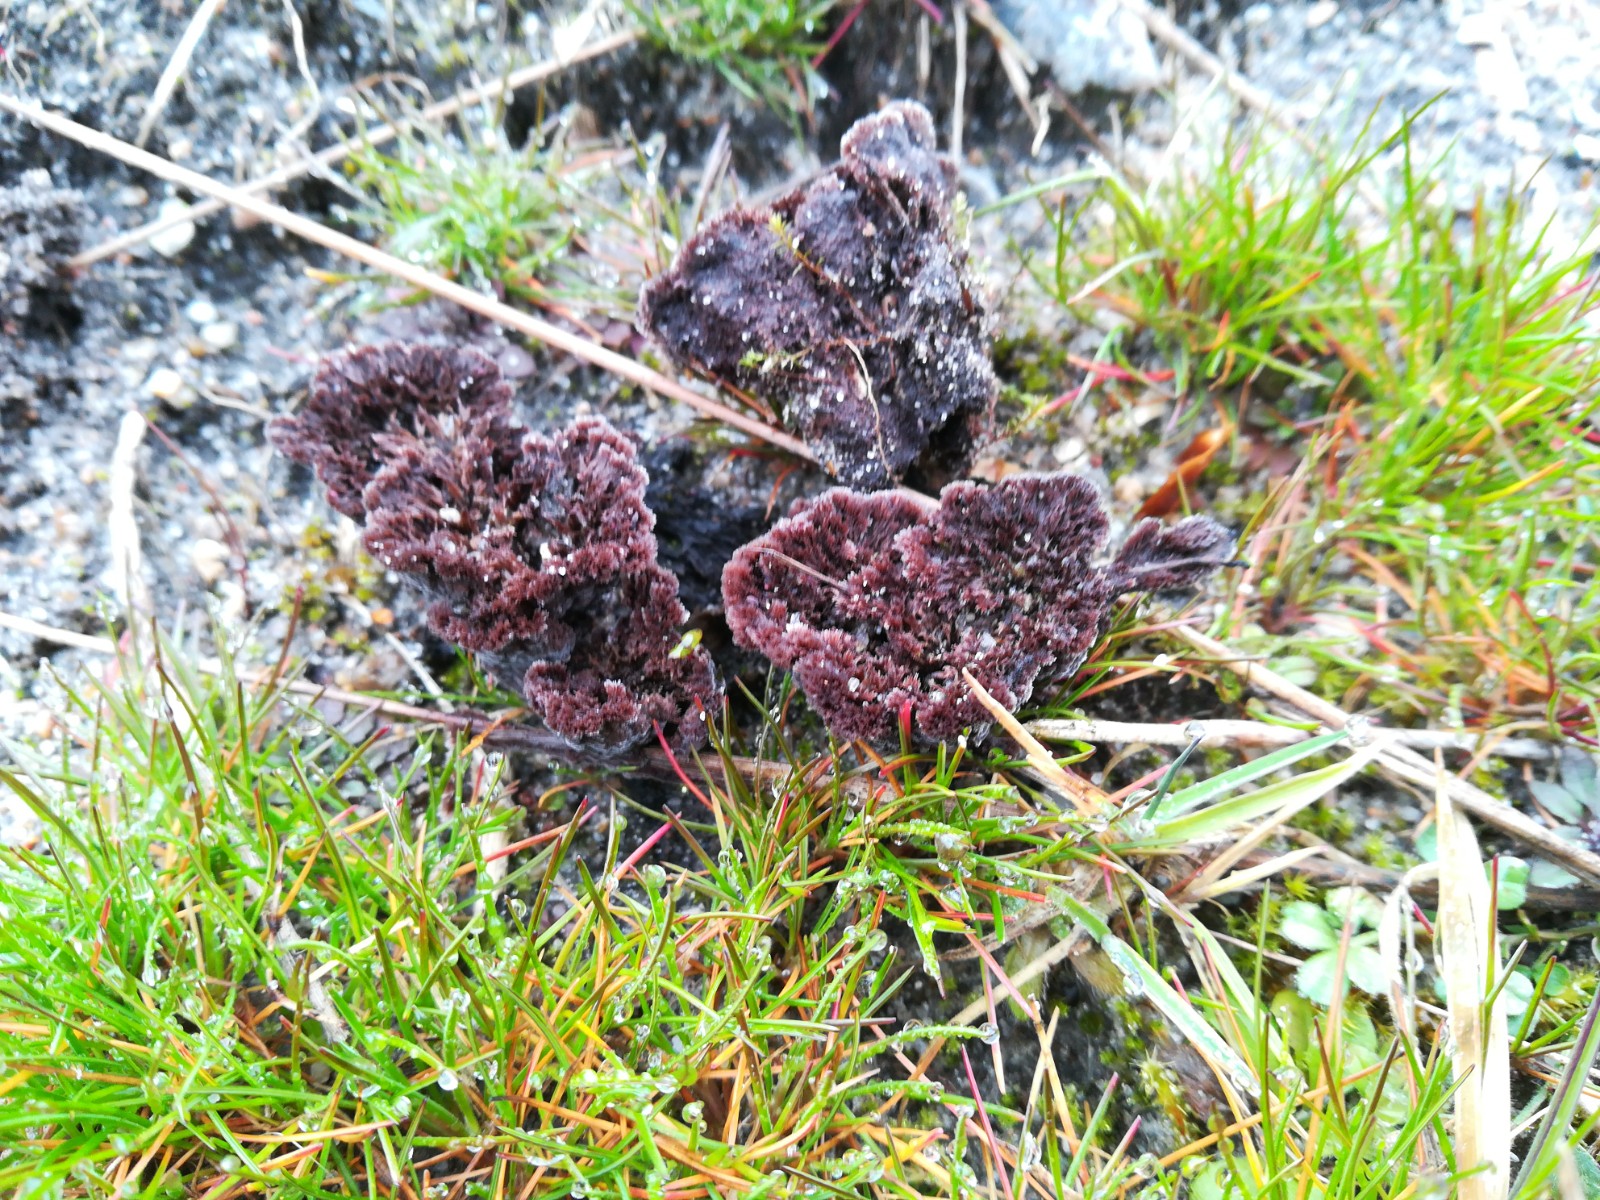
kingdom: Fungi
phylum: Basidiomycota
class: Agaricomycetes
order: Thelephorales
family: Thelephoraceae
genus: Thelephora
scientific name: Thelephora terrestris
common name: fliget frynsesvamp
